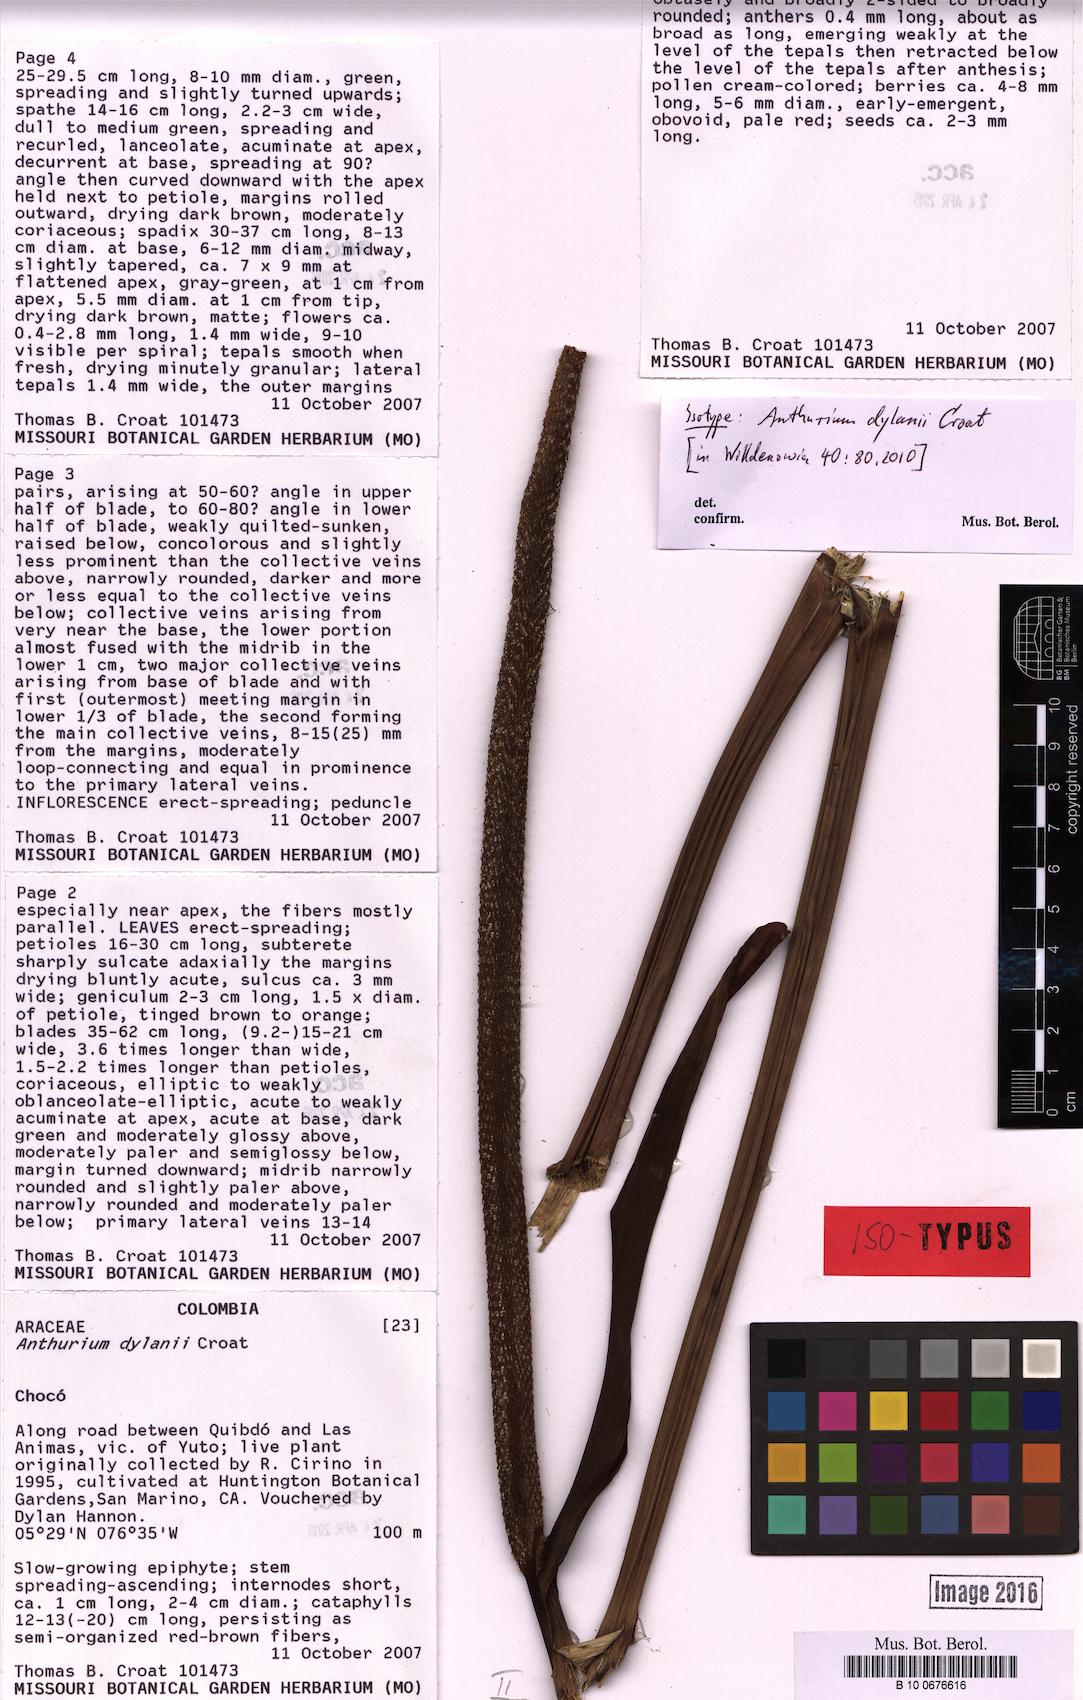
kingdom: Plantae
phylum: Tracheophyta
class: Liliopsida
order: Alismatales
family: Araceae
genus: Anthurium
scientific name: Anthurium dylanii
